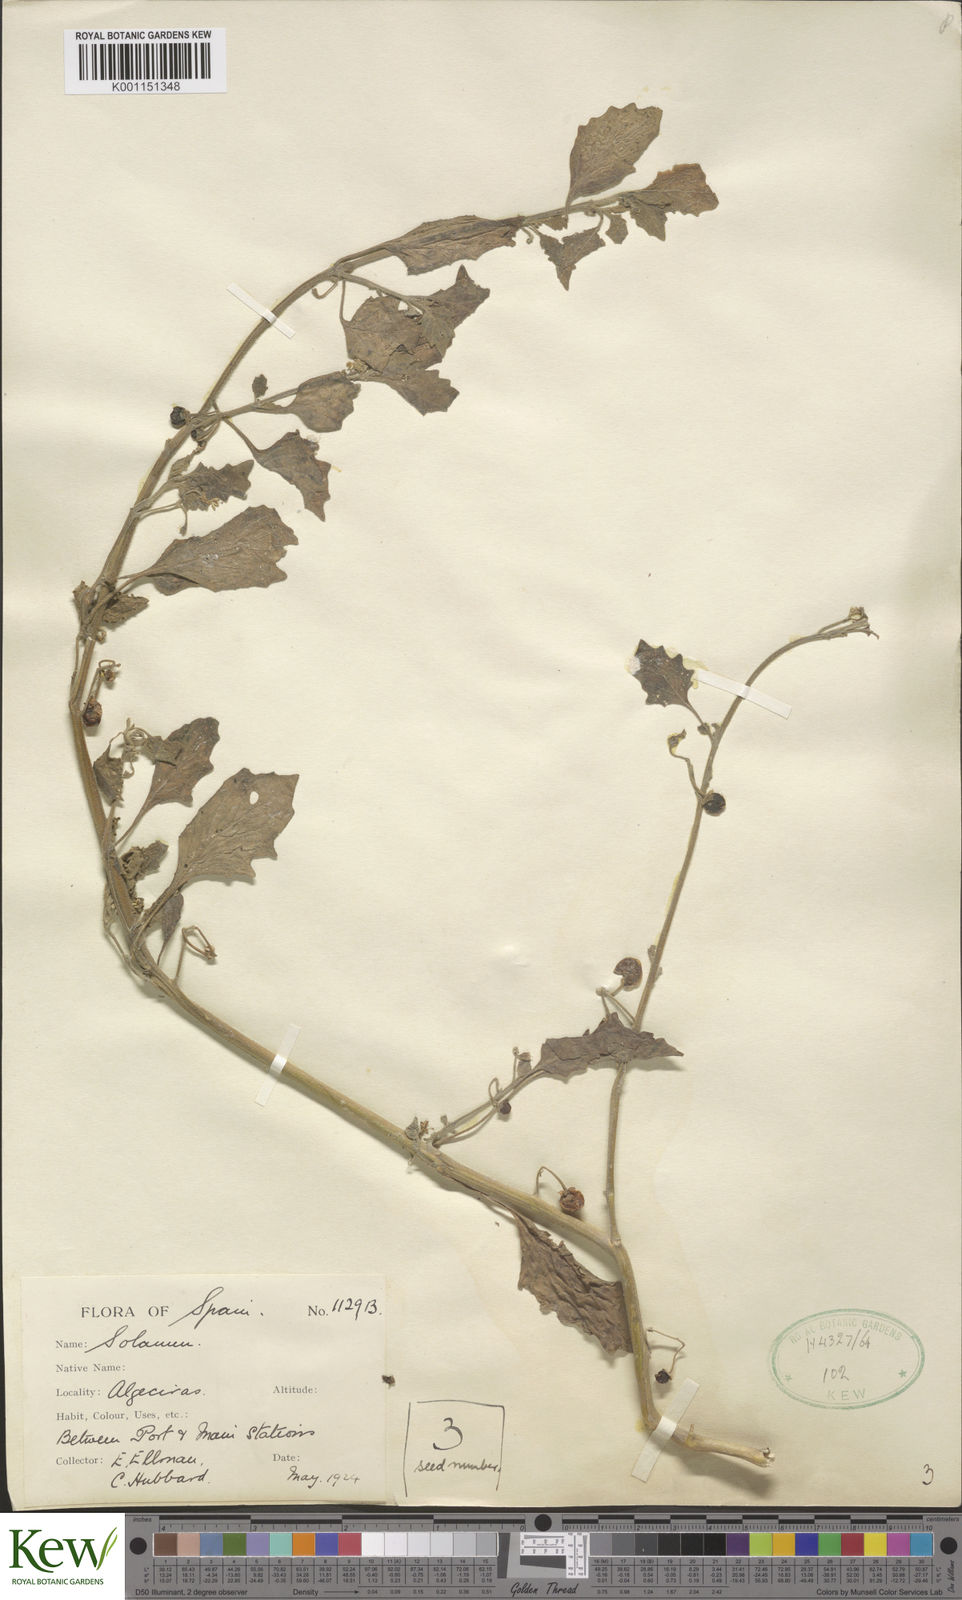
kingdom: Plantae
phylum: Tracheophyta
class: Magnoliopsida
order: Solanales
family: Solanaceae
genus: Solanum
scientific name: Solanum alatum
